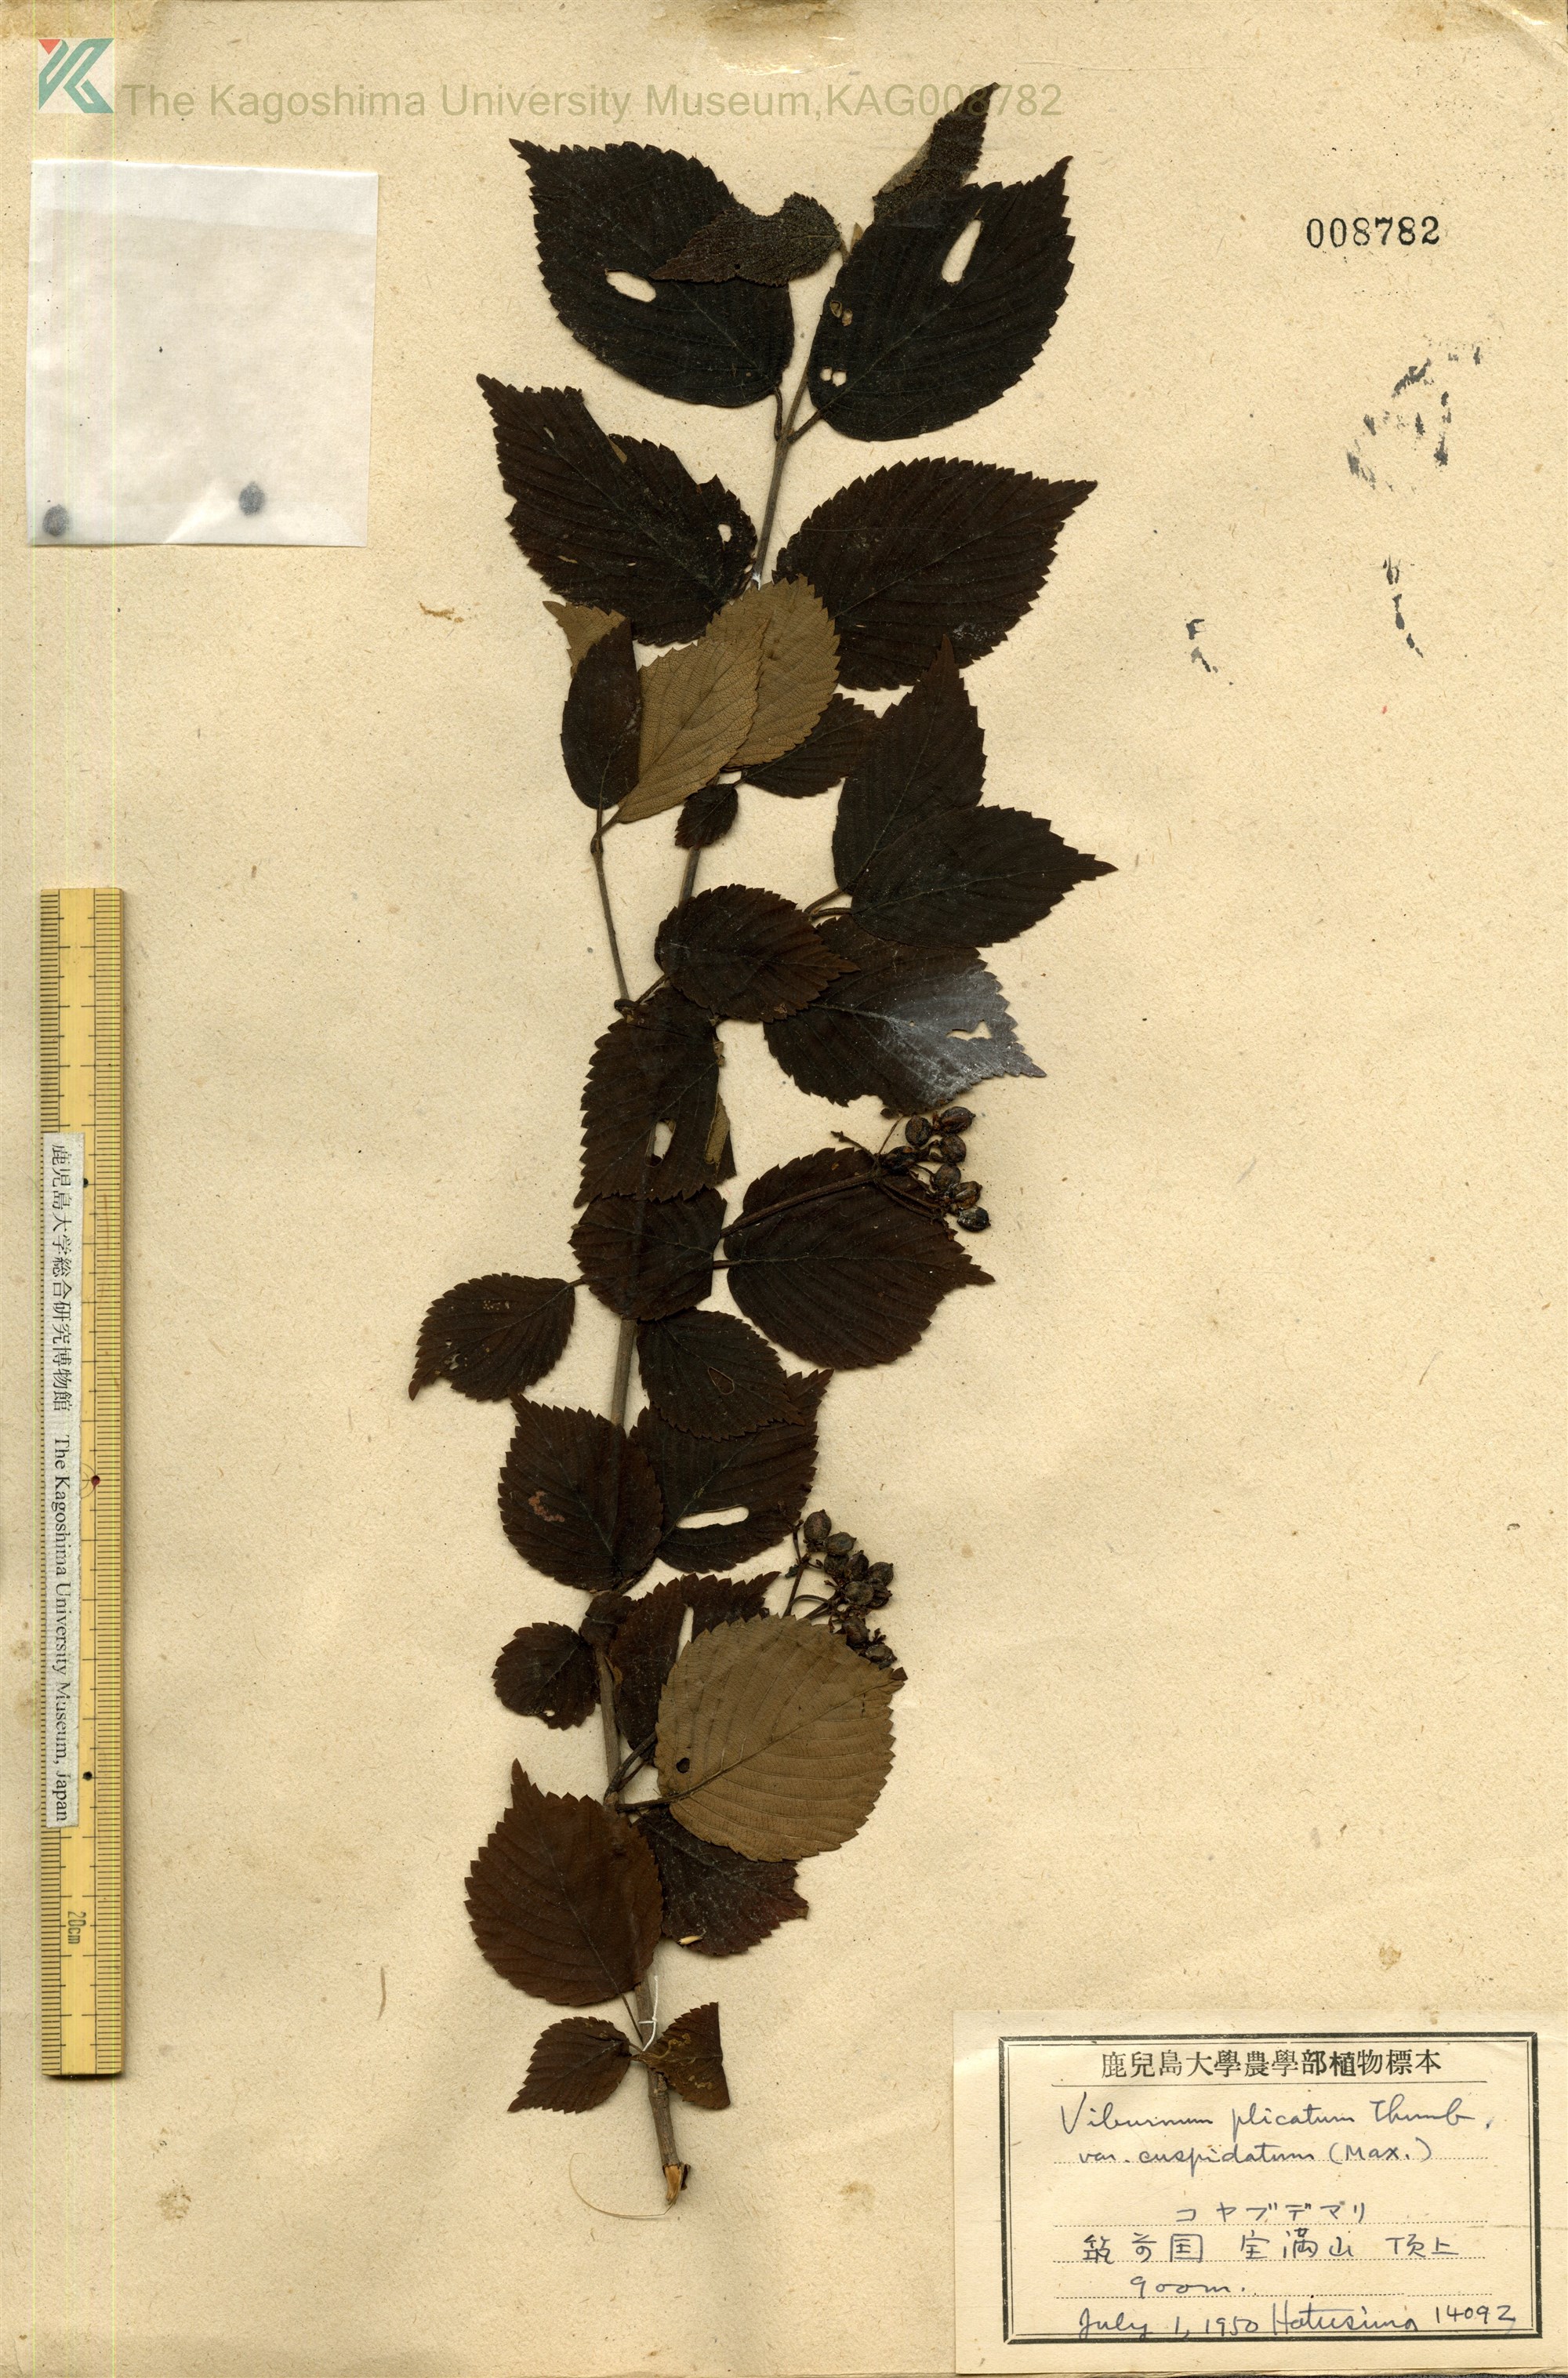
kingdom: Plantae
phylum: Tracheophyta
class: Magnoliopsida
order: Dipsacales
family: Viburnaceae
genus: Viburnum
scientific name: Viburnum plicatum
